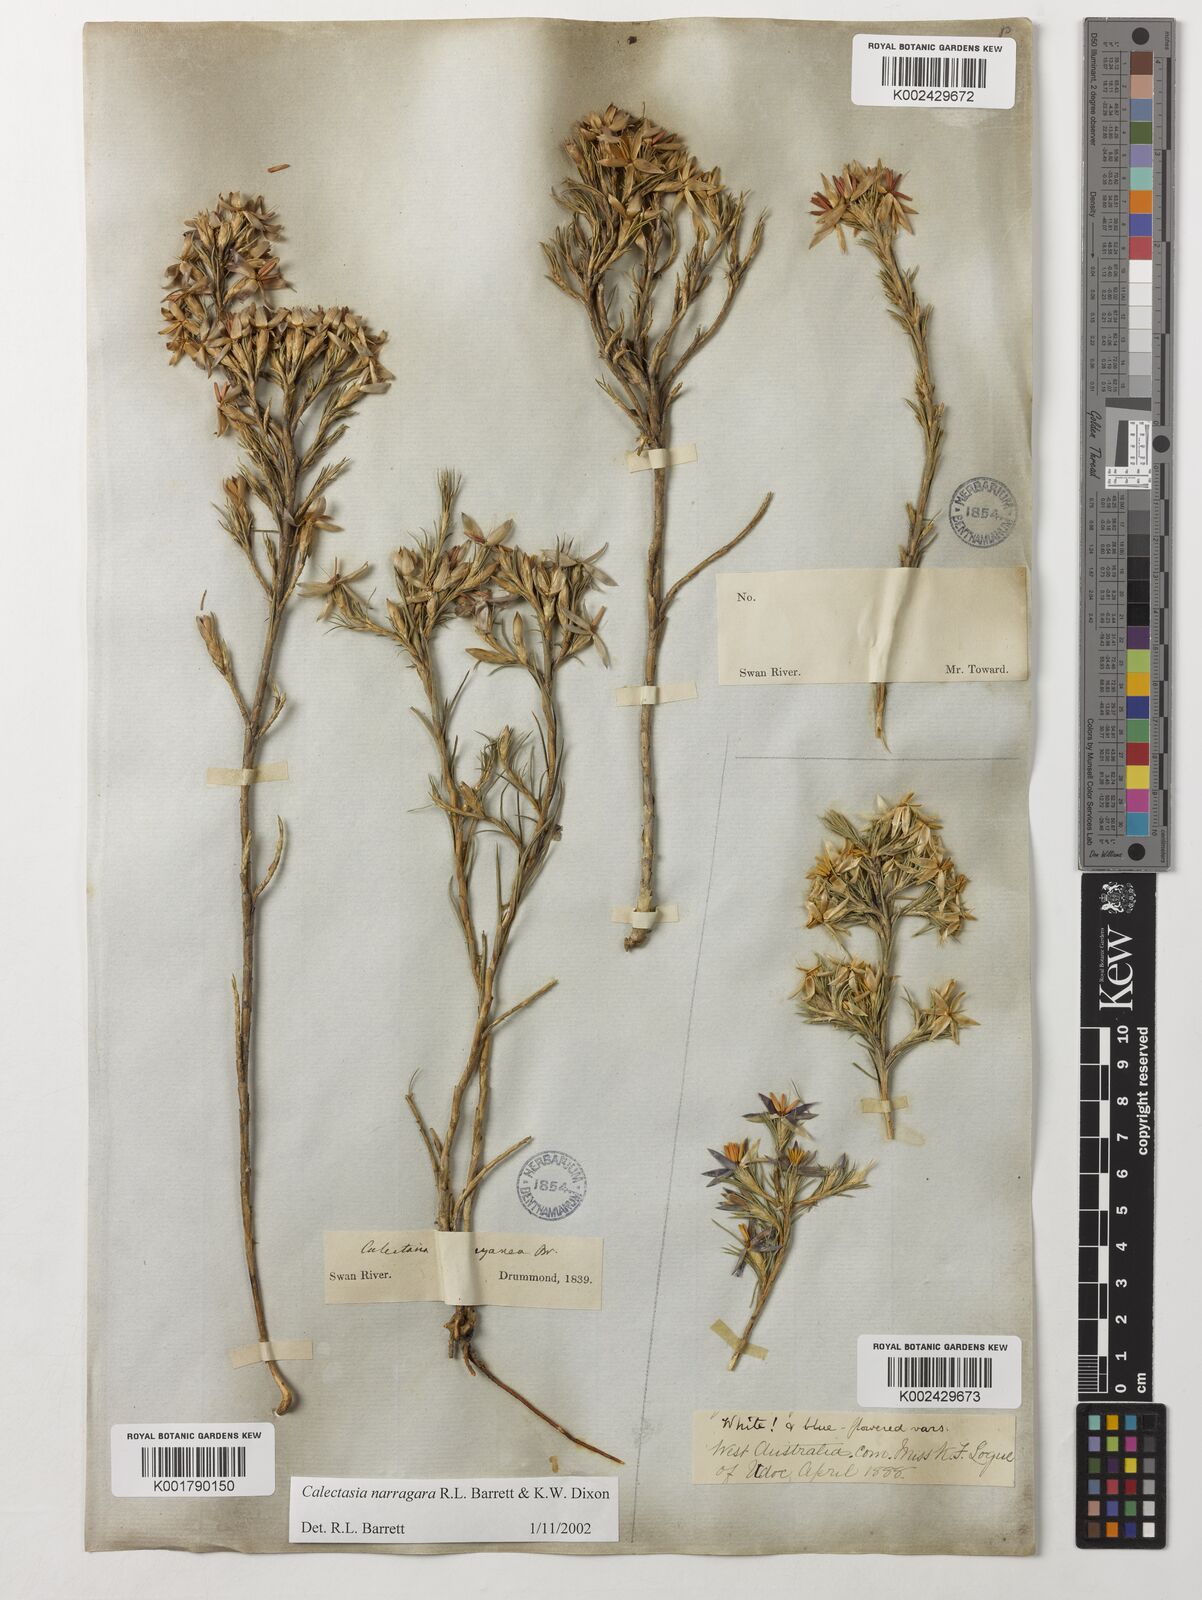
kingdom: Plantae
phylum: Tracheophyta
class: Liliopsida
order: Arecales
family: Dasypogonaceae
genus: Calectasia
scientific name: Calectasia narragara
